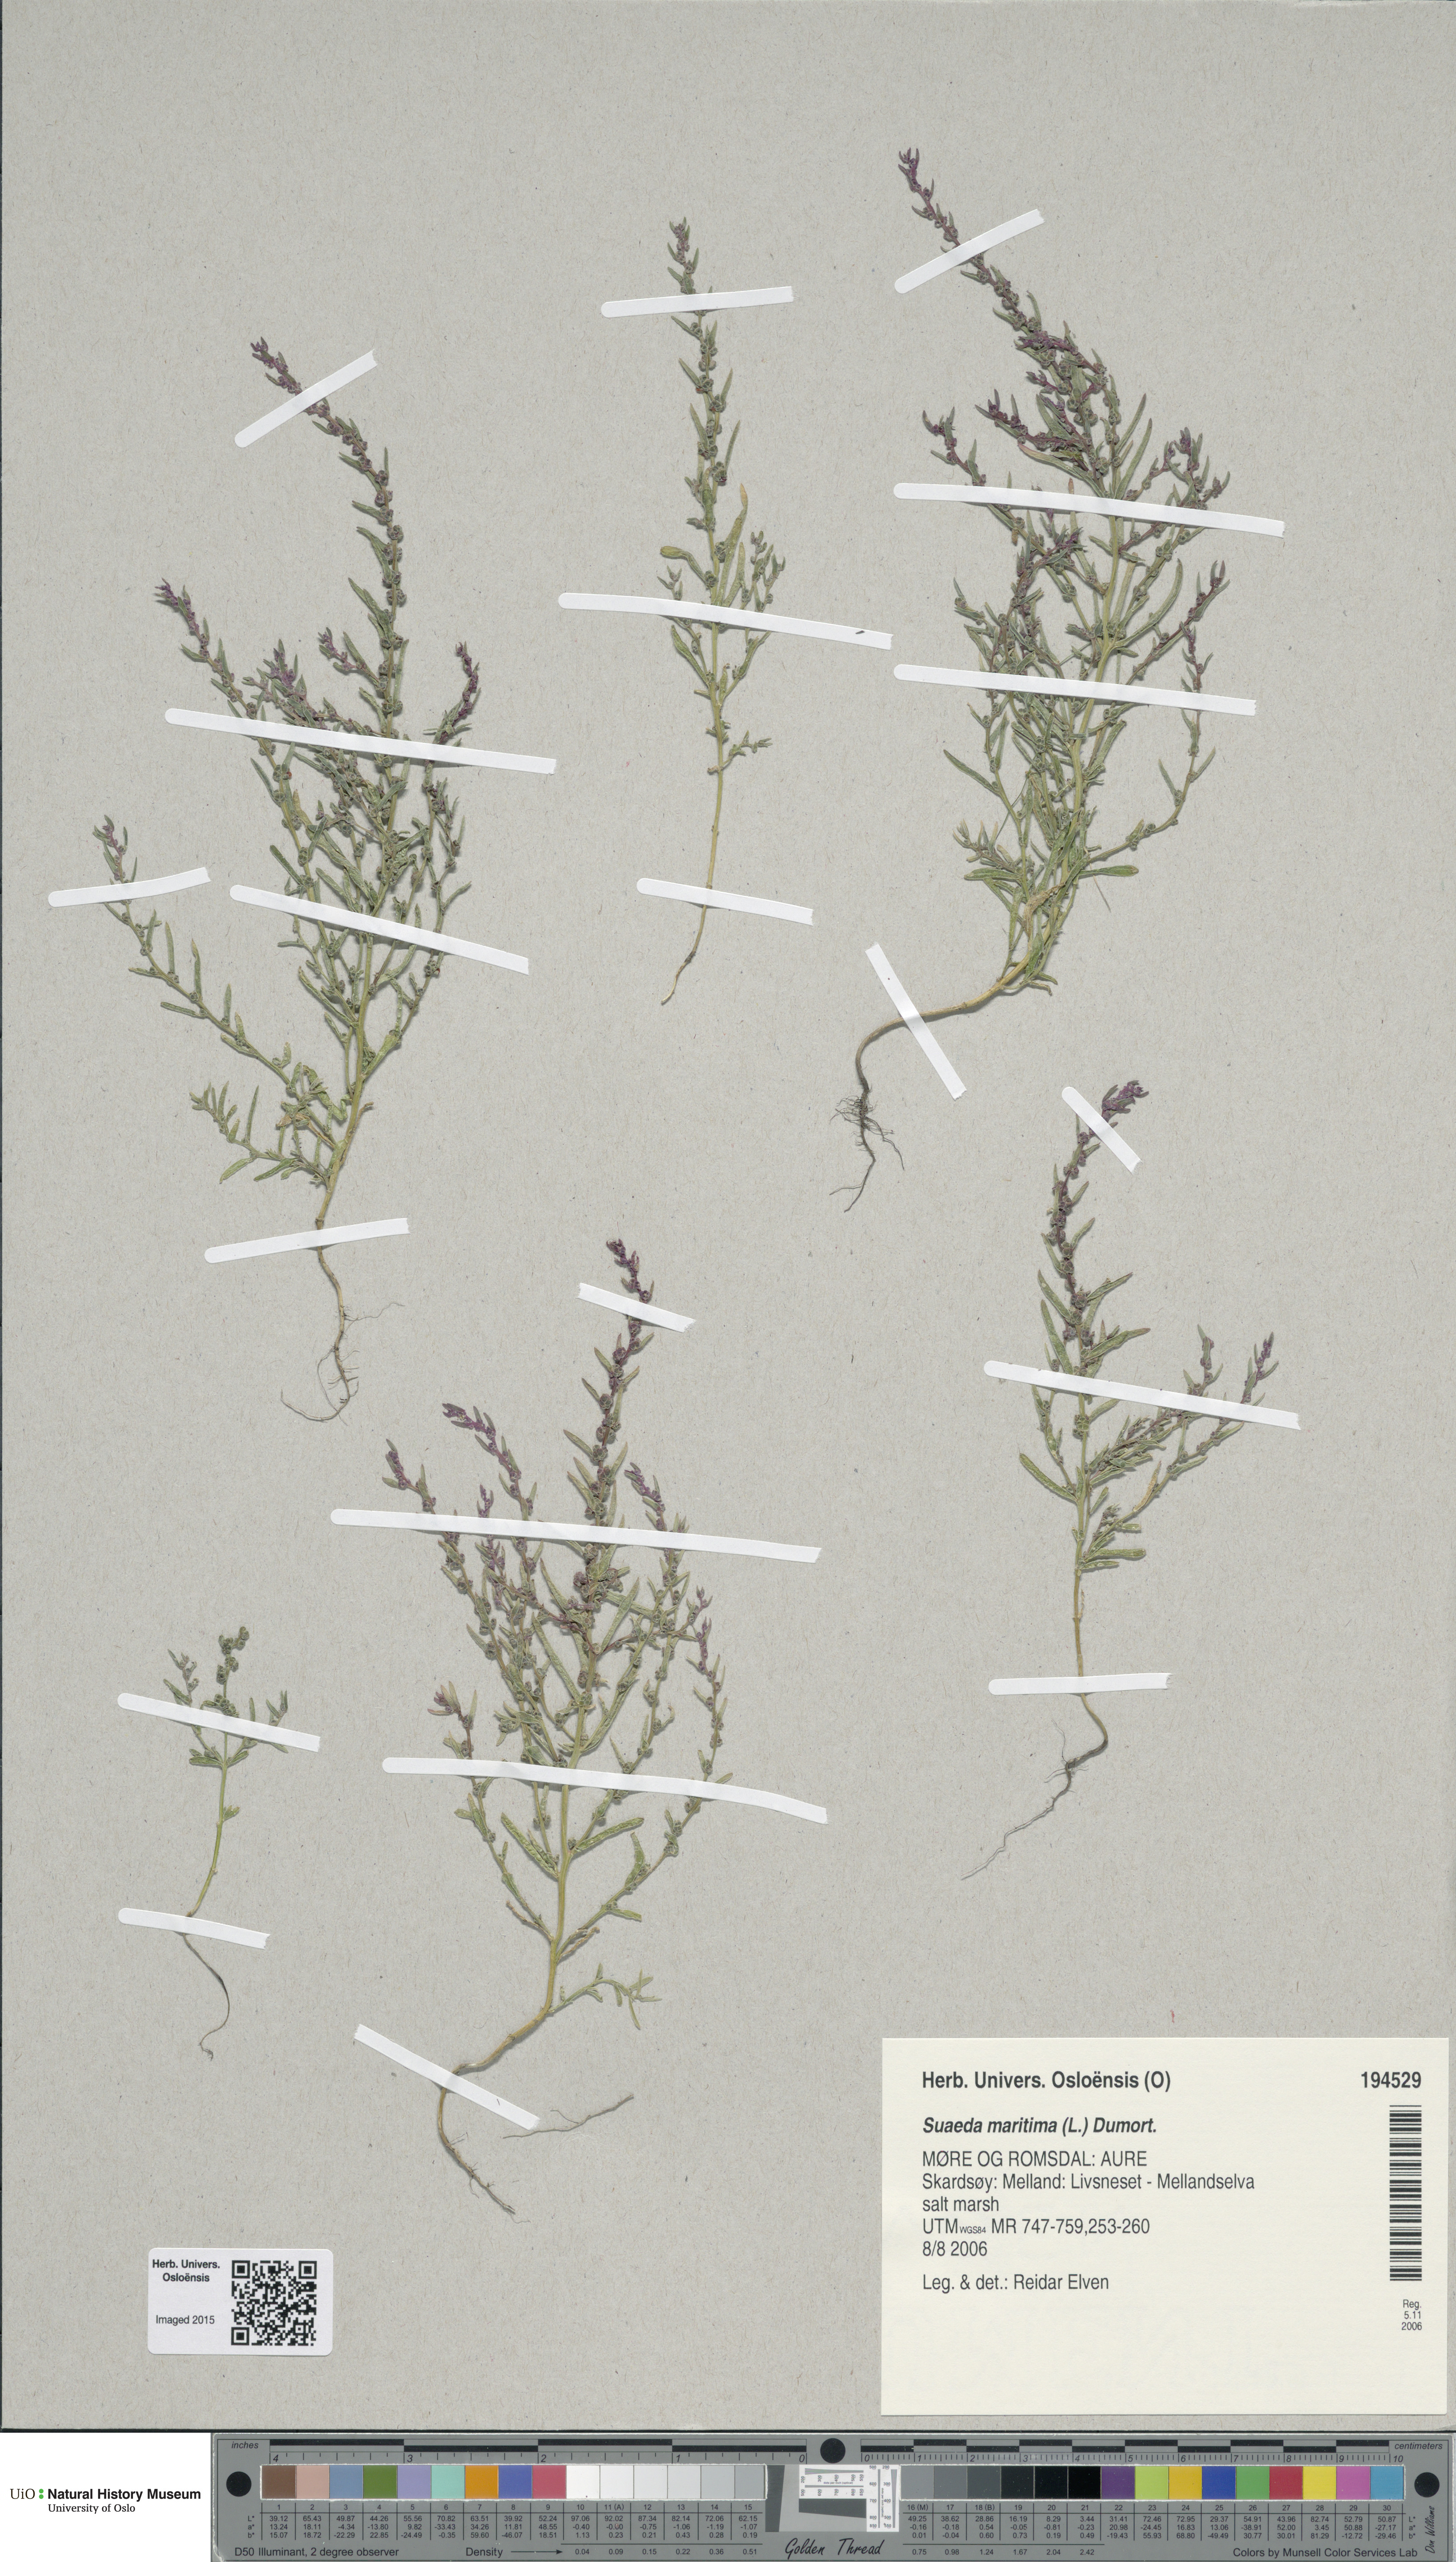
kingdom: Plantae
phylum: Tracheophyta
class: Magnoliopsida
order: Caryophyllales
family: Amaranthaceae
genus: Suaeda
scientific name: Suaeda maritima
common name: Annual sea-blite
